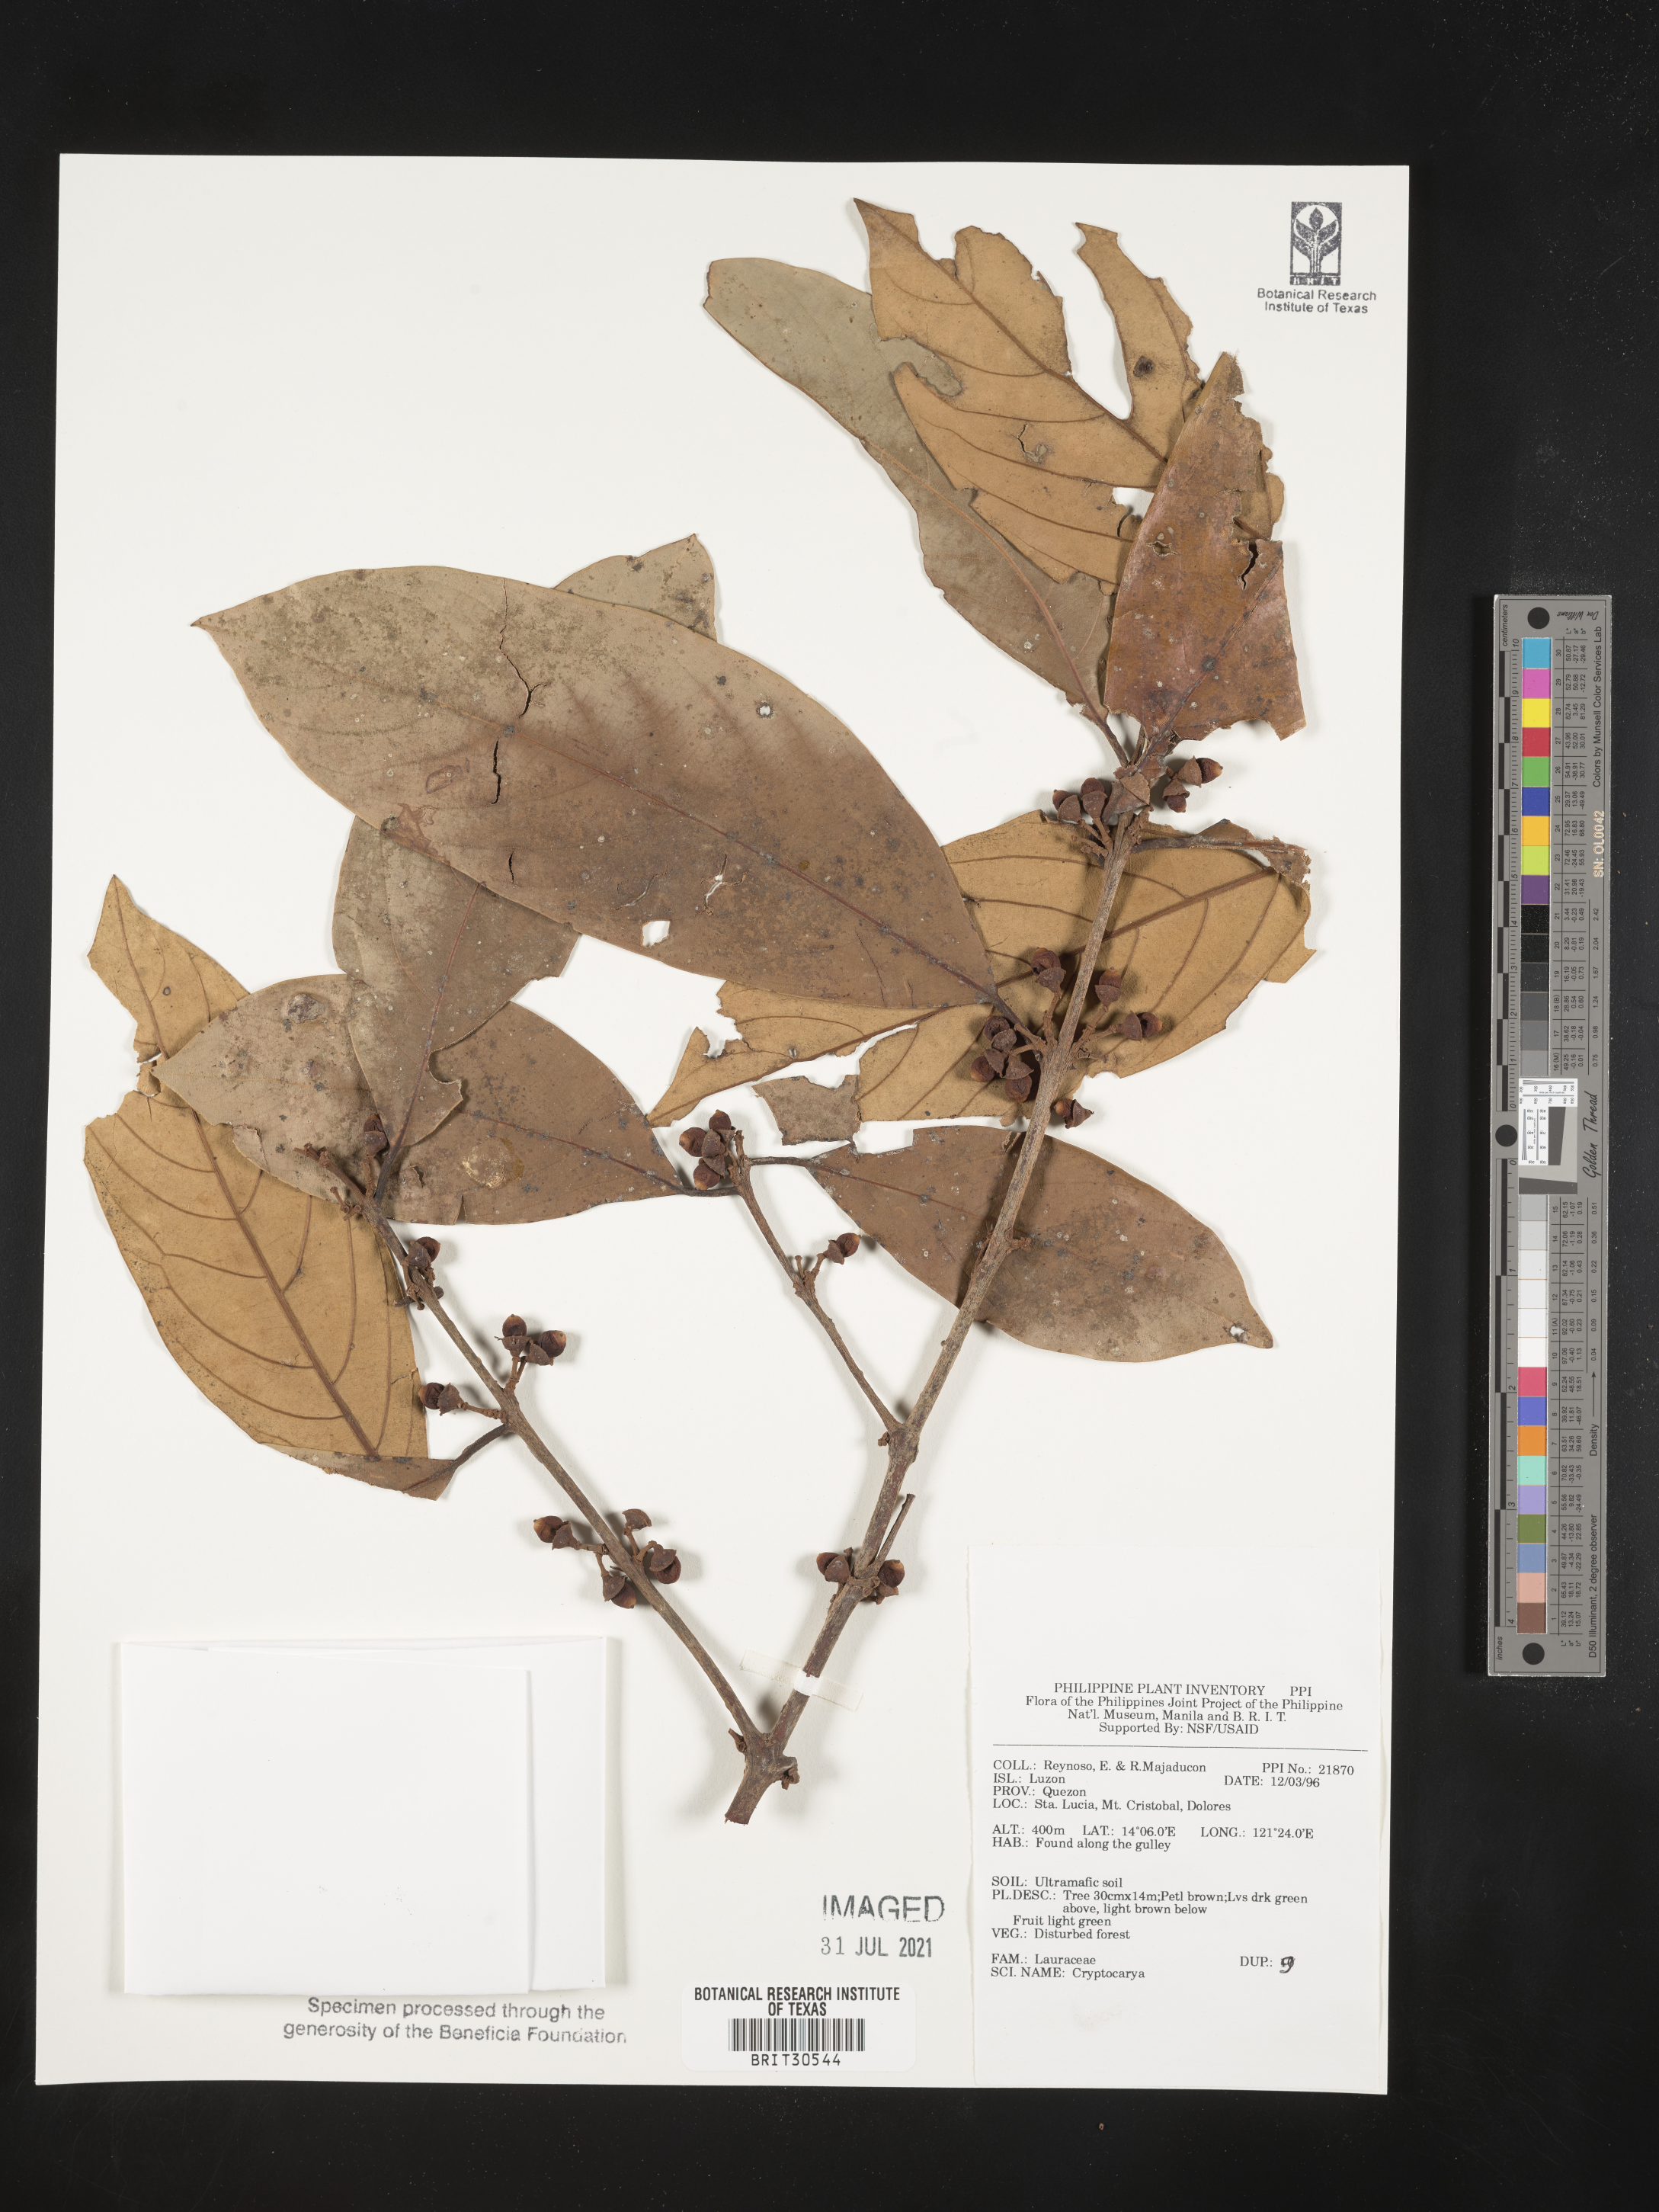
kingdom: Plantae
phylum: Tracheophyta
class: Magnoliopsida
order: Laurales
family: Lauraceae
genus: Cryptocarya
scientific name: Cryptocarya
